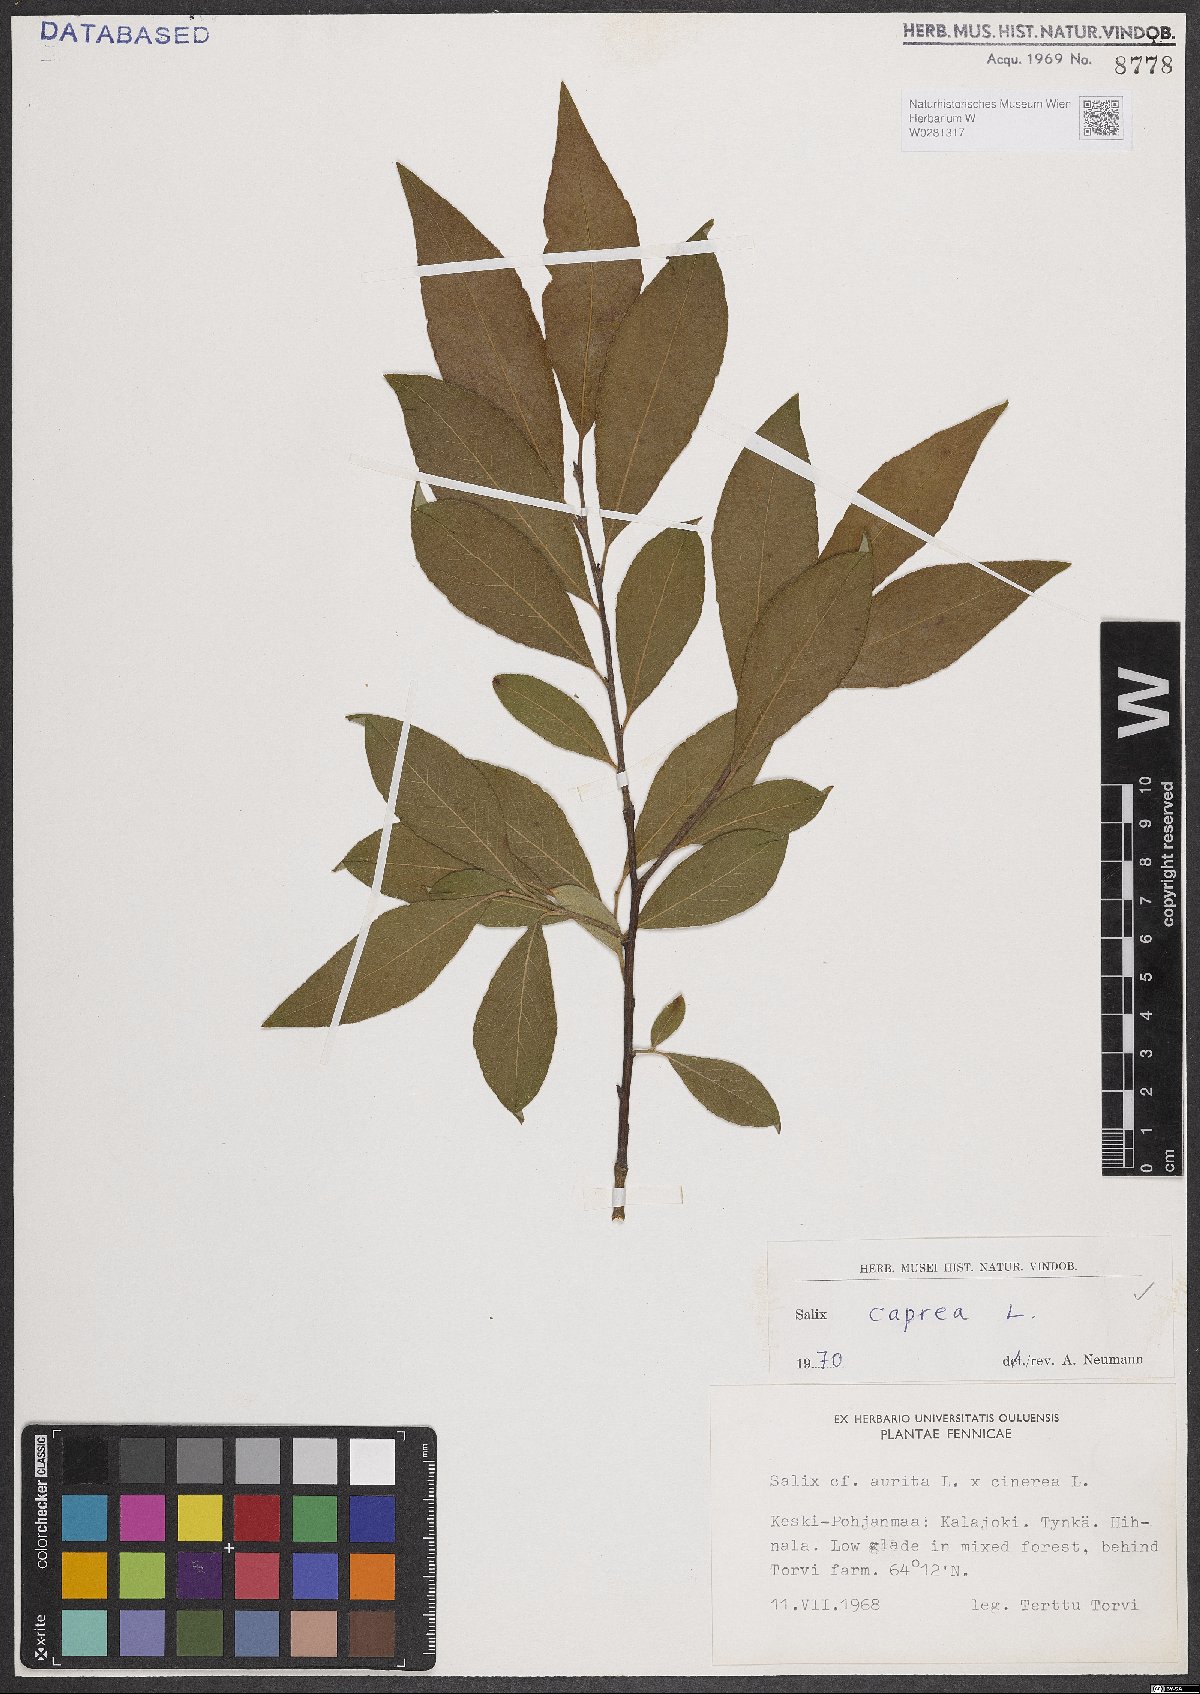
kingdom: Plantae
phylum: Tracheophyta
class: Magnoliopsida
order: Malpighiales
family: Salicaceae
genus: Salix
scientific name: Salix caprea
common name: Goat willow
